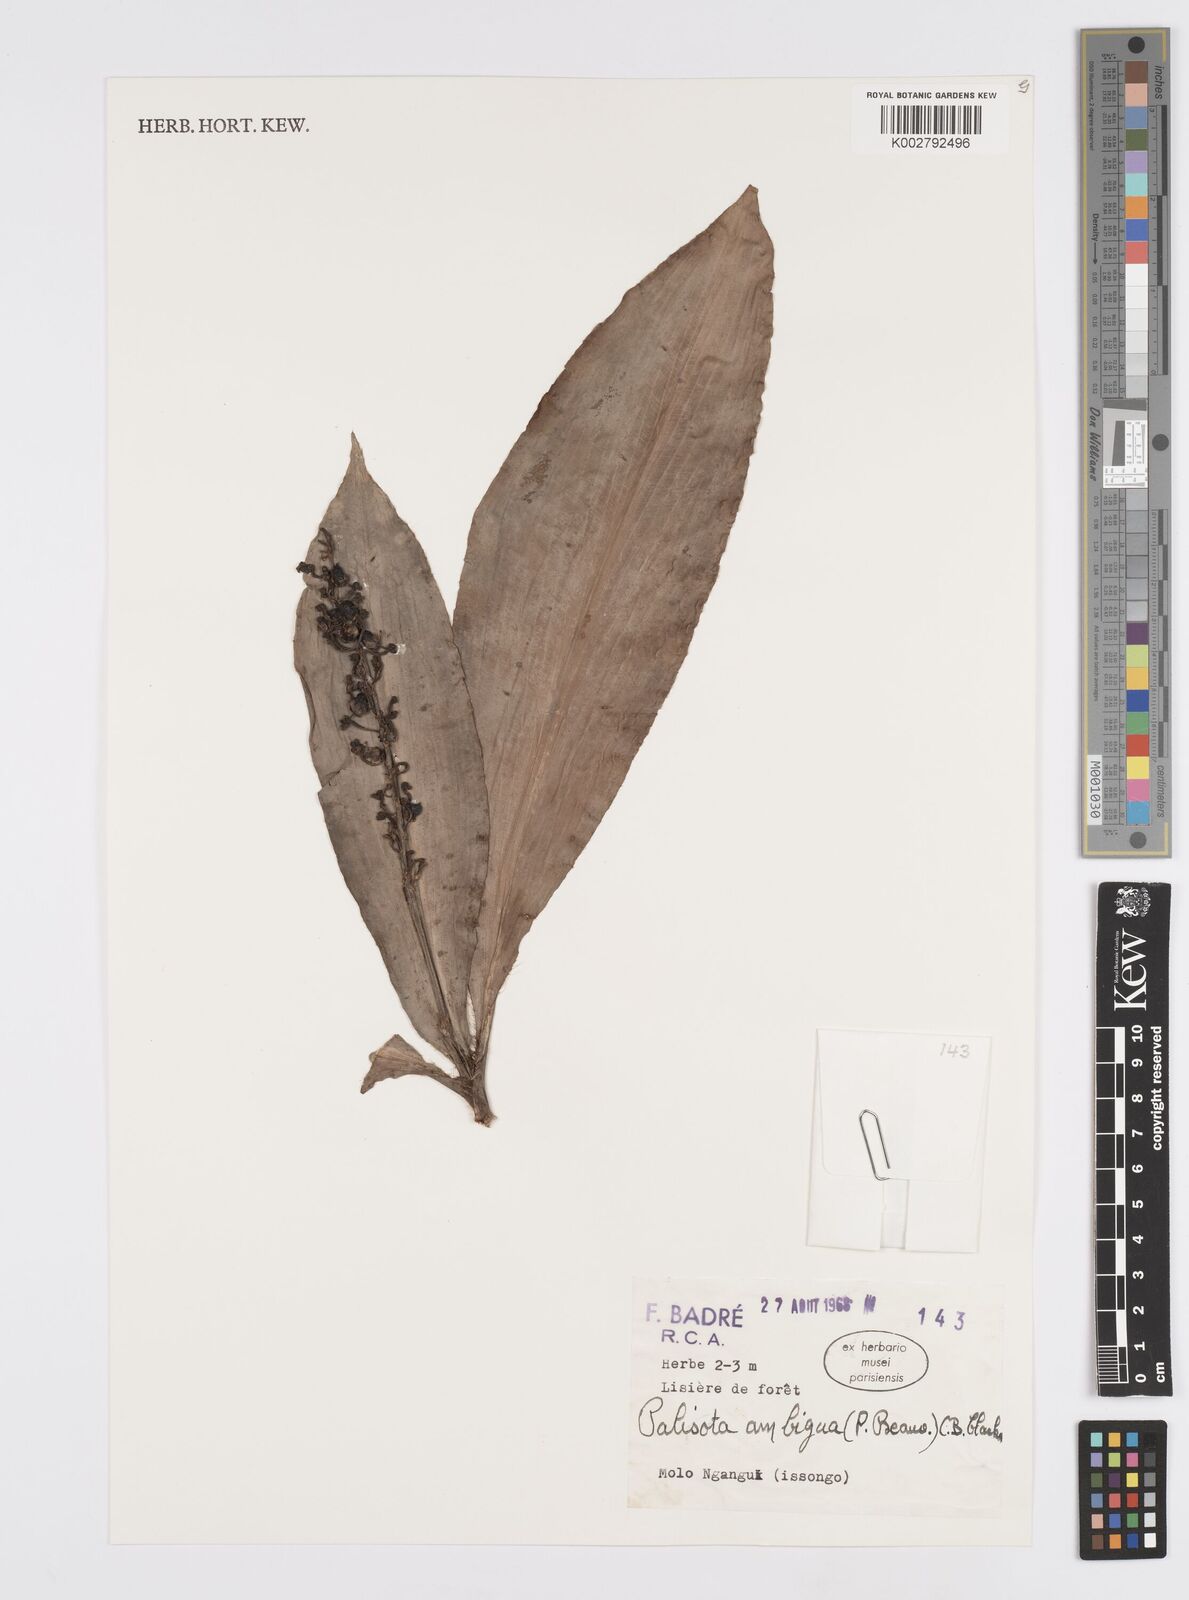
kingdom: Plantae
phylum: Tracheophyta
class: Liliopsida
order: Commelinales
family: Commelinaceae
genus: Palisota
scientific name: Palisota ambigua
